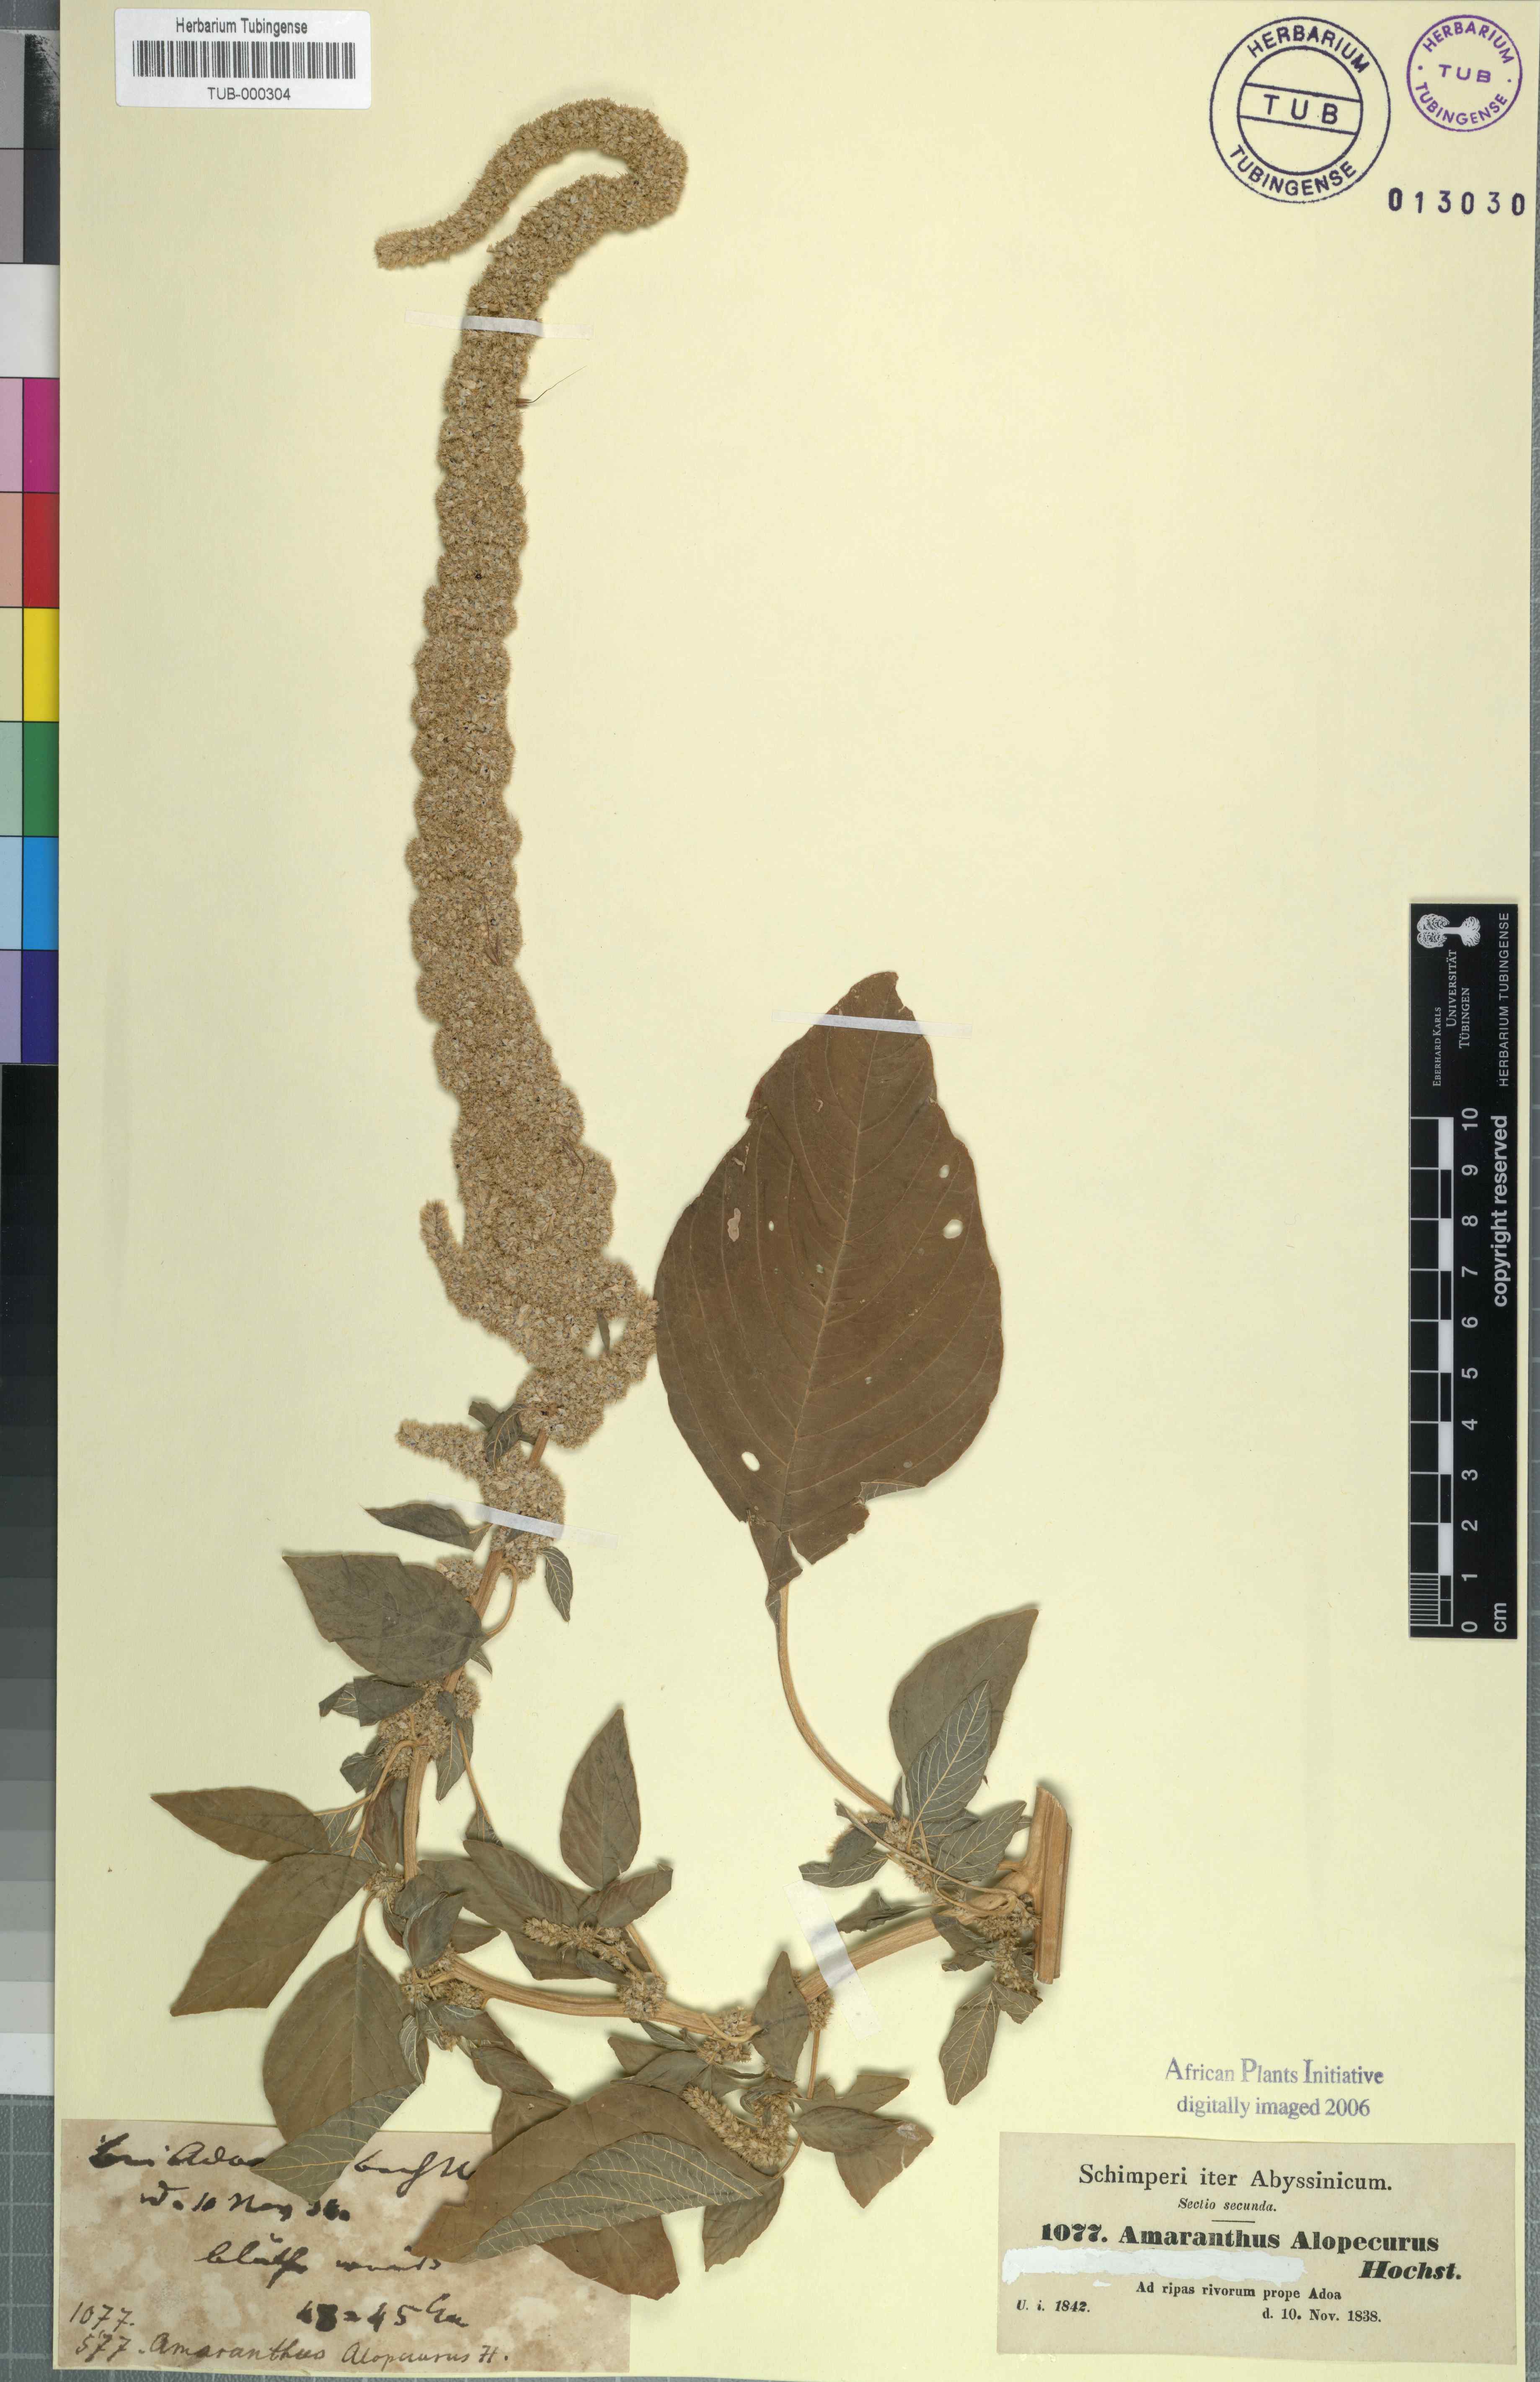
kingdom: Plantae
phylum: Tracheophyta
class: Magnoliopsida
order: Caryophyllales
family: Amaranthaceae
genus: Amaranthus
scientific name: Amaranthus caudatus
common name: Love-lies-bleeding
